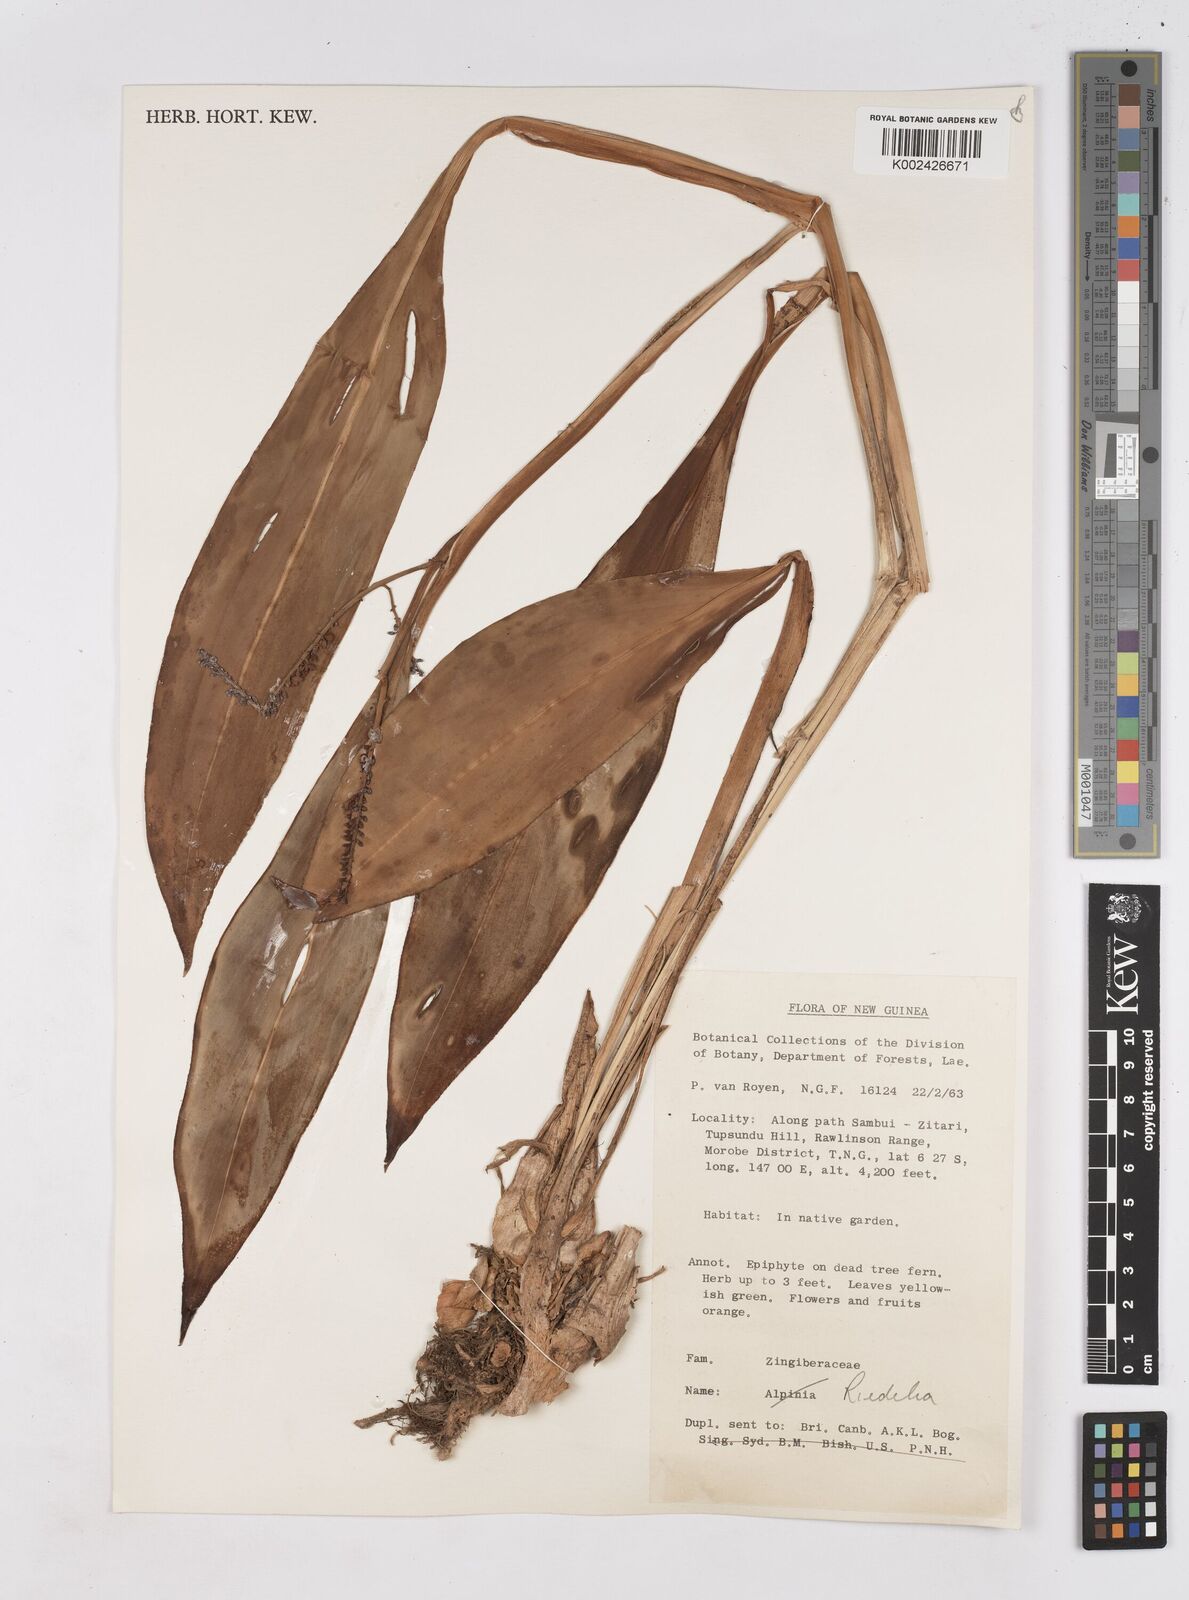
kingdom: Plantae
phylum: Tracheophyta
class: Liliopsida
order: Zingiberales
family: Zingiberaceae
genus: Riedelia
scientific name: Riedelia
